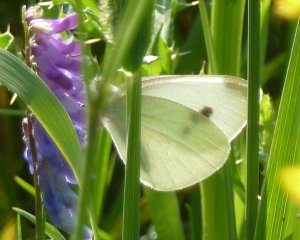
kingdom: Animalia
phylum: Arthropoda
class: Insecta
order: Lepidoptera
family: Pieridae
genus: Pieris
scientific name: Pieris rapae
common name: Cabbage White
